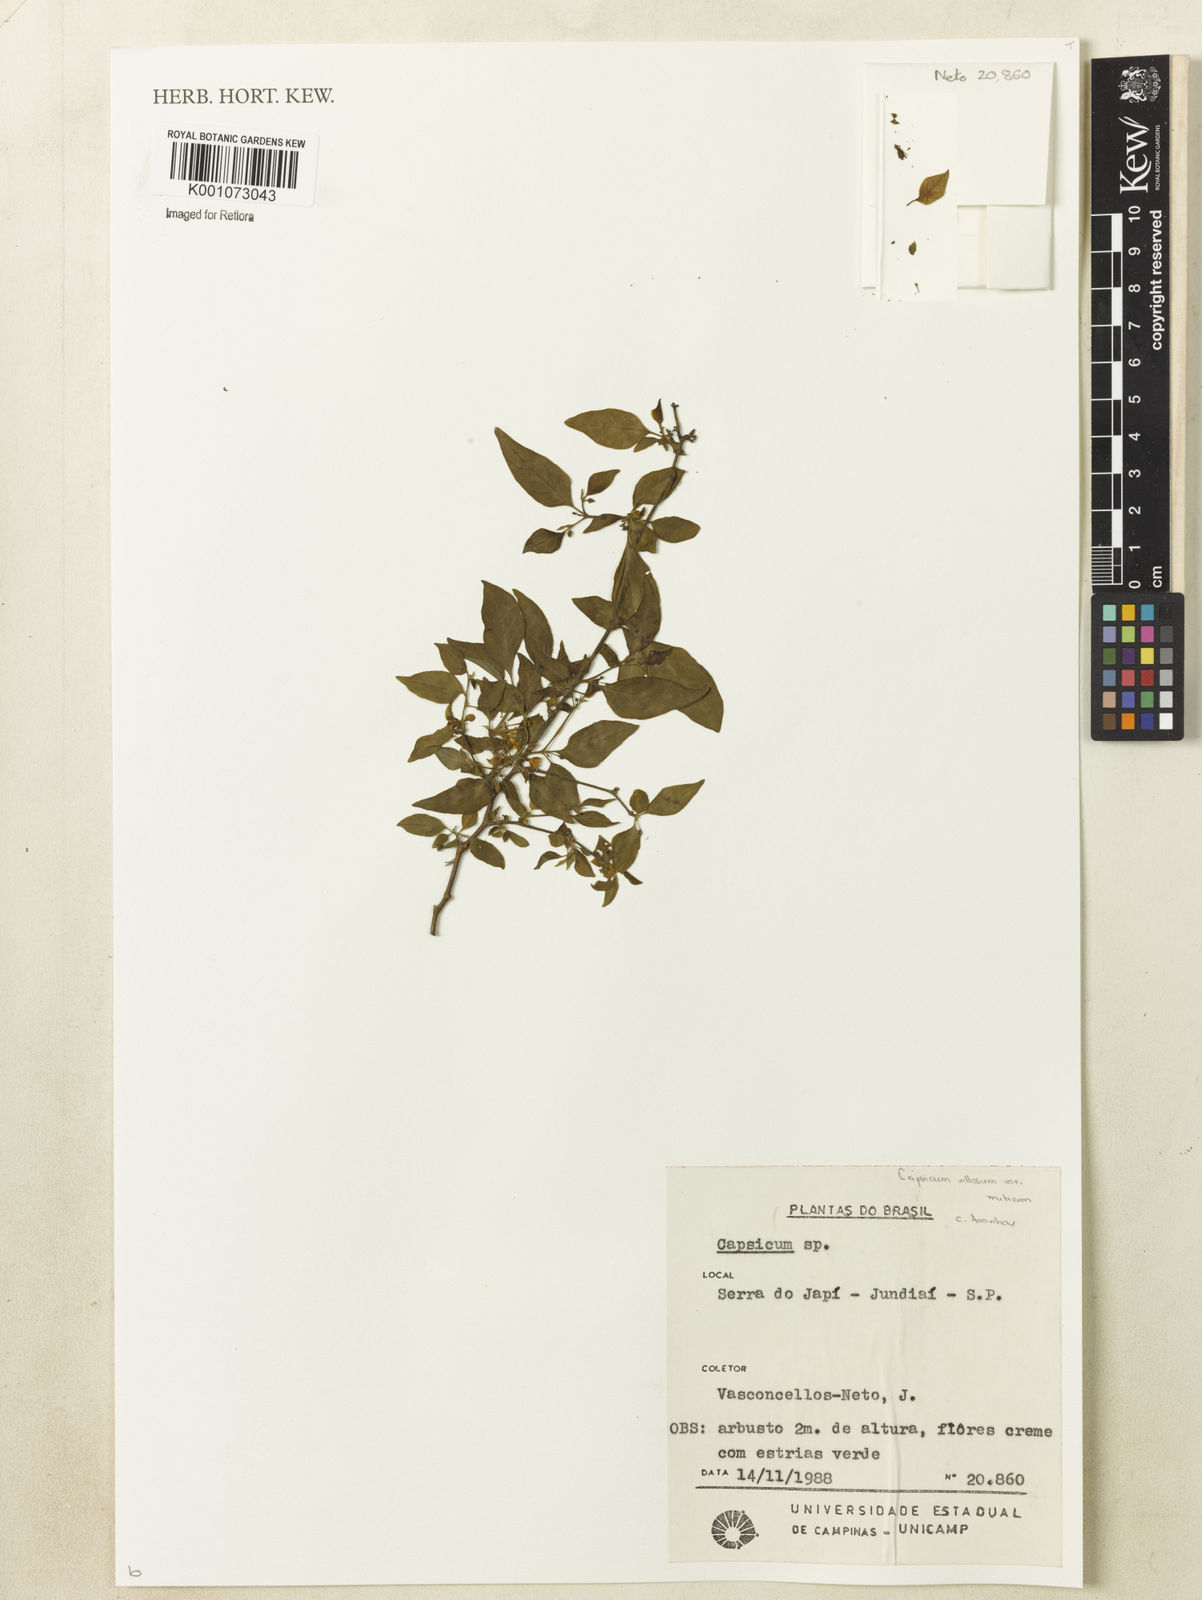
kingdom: Plantae
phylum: Tracheophyta
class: Magnoliopsida
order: Solanales
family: Solanaceae
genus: Capsicum
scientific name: Capsicum muticum
